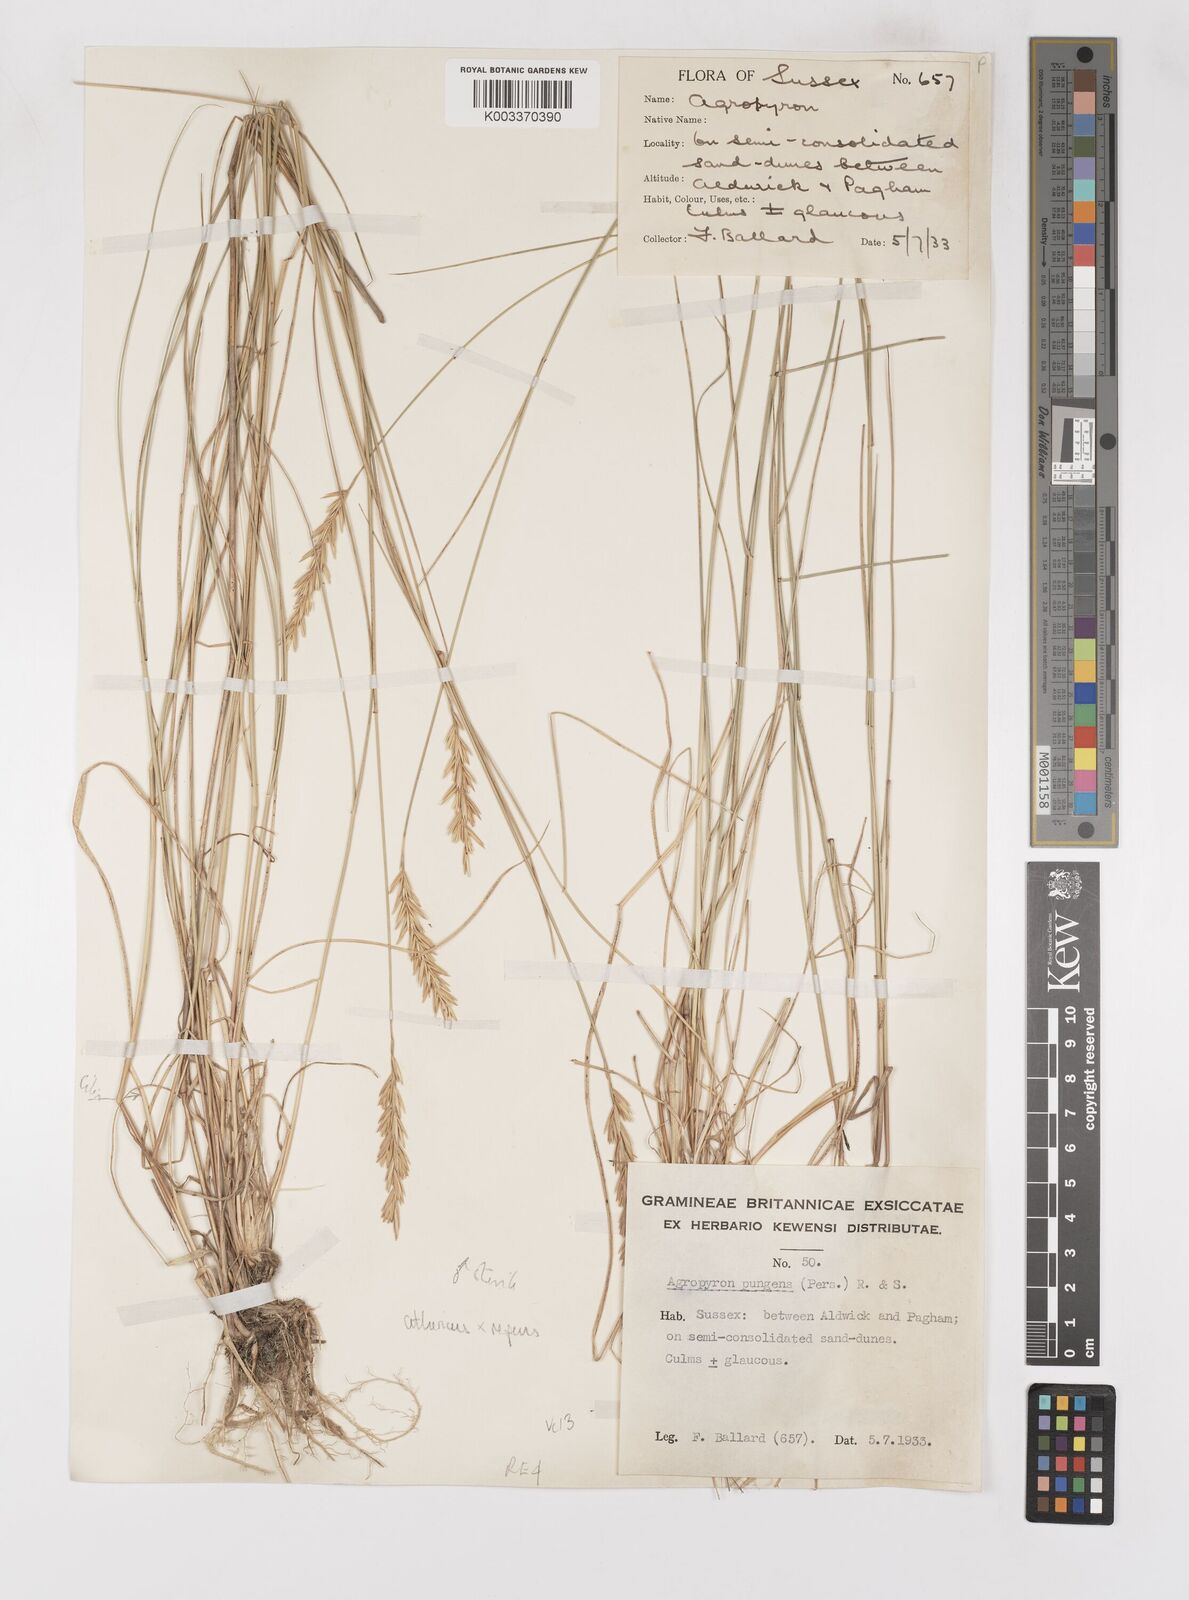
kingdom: Plantae
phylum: Tracheophyta
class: Liliopsida
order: Poales
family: Poaceae
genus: Elymus
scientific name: Elymus oliveri
